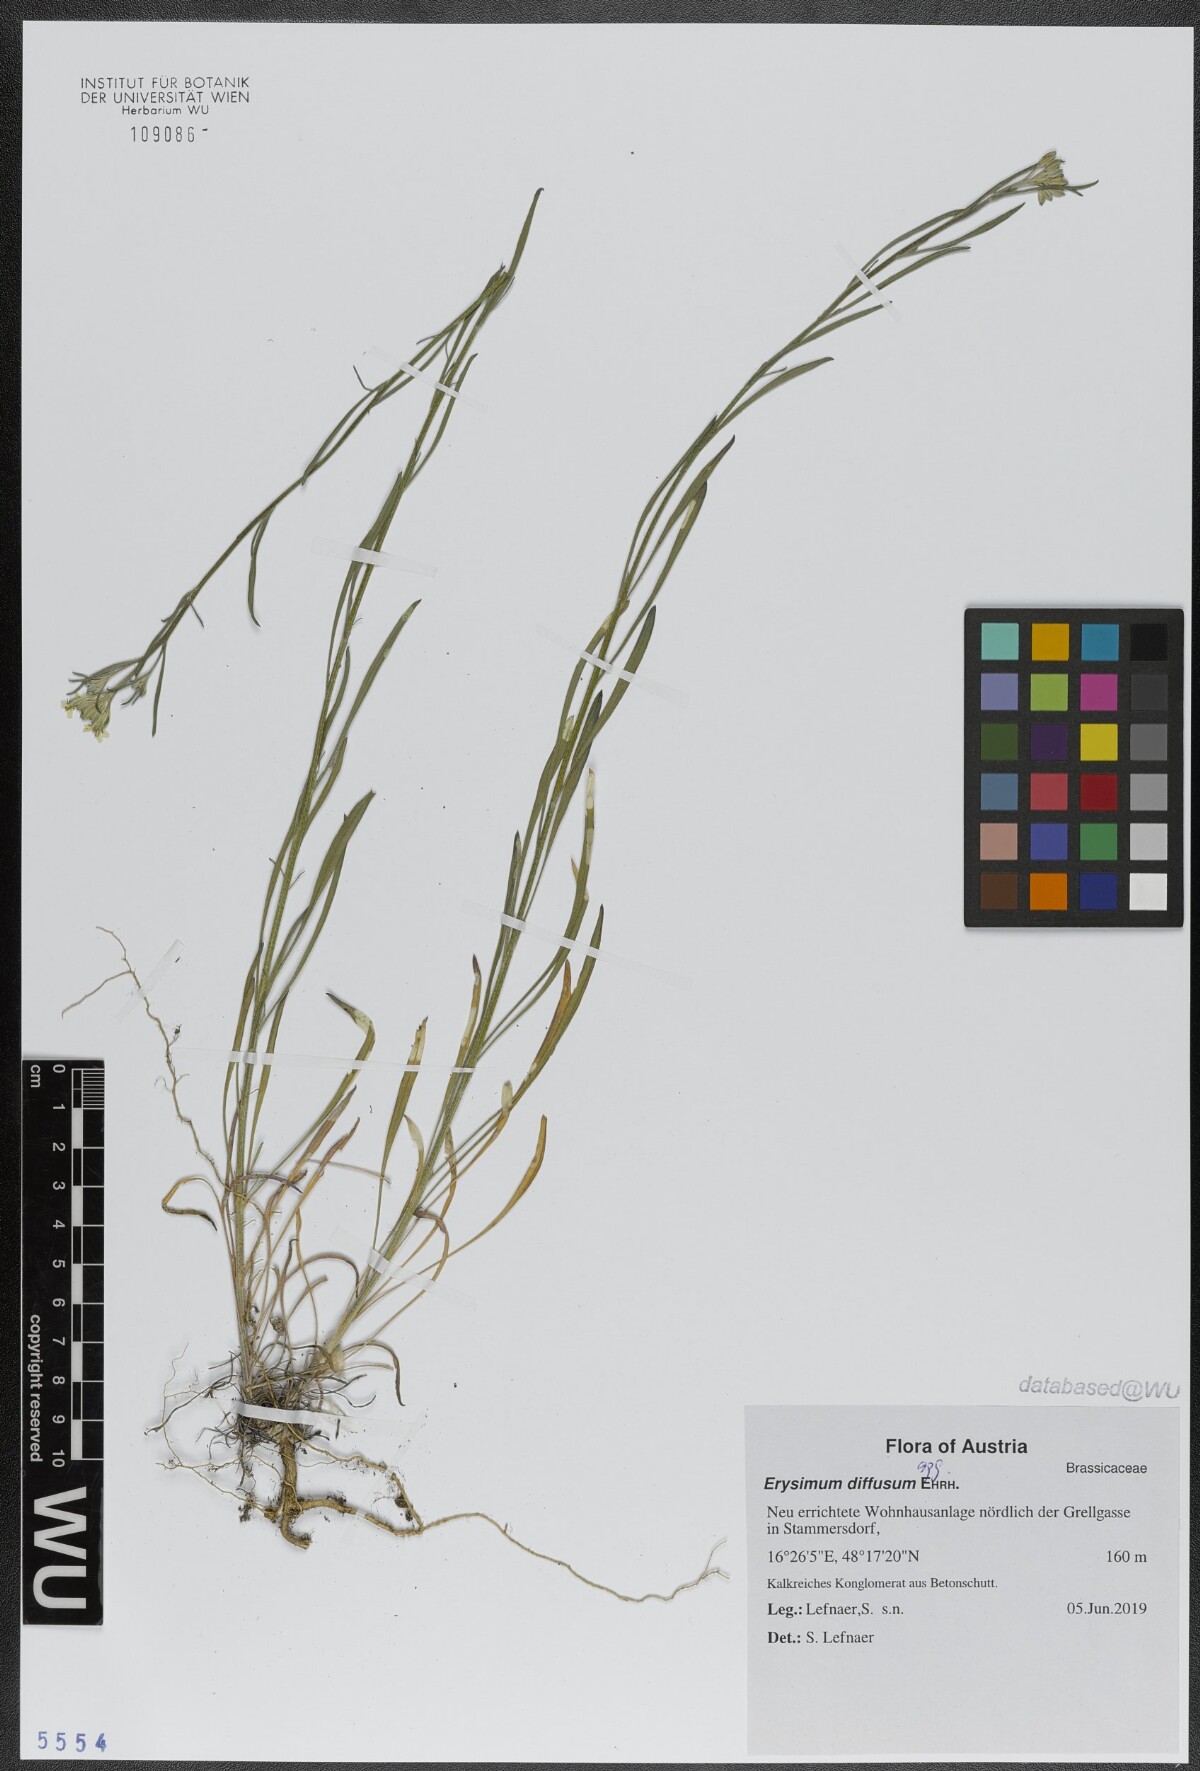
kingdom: Plantae
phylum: Tracheophyta
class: Magnoliopsida
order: Brassicales
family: Brassicaceae
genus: Erysimum
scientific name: Erysimum diffusum
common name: Diffuse wallflower
